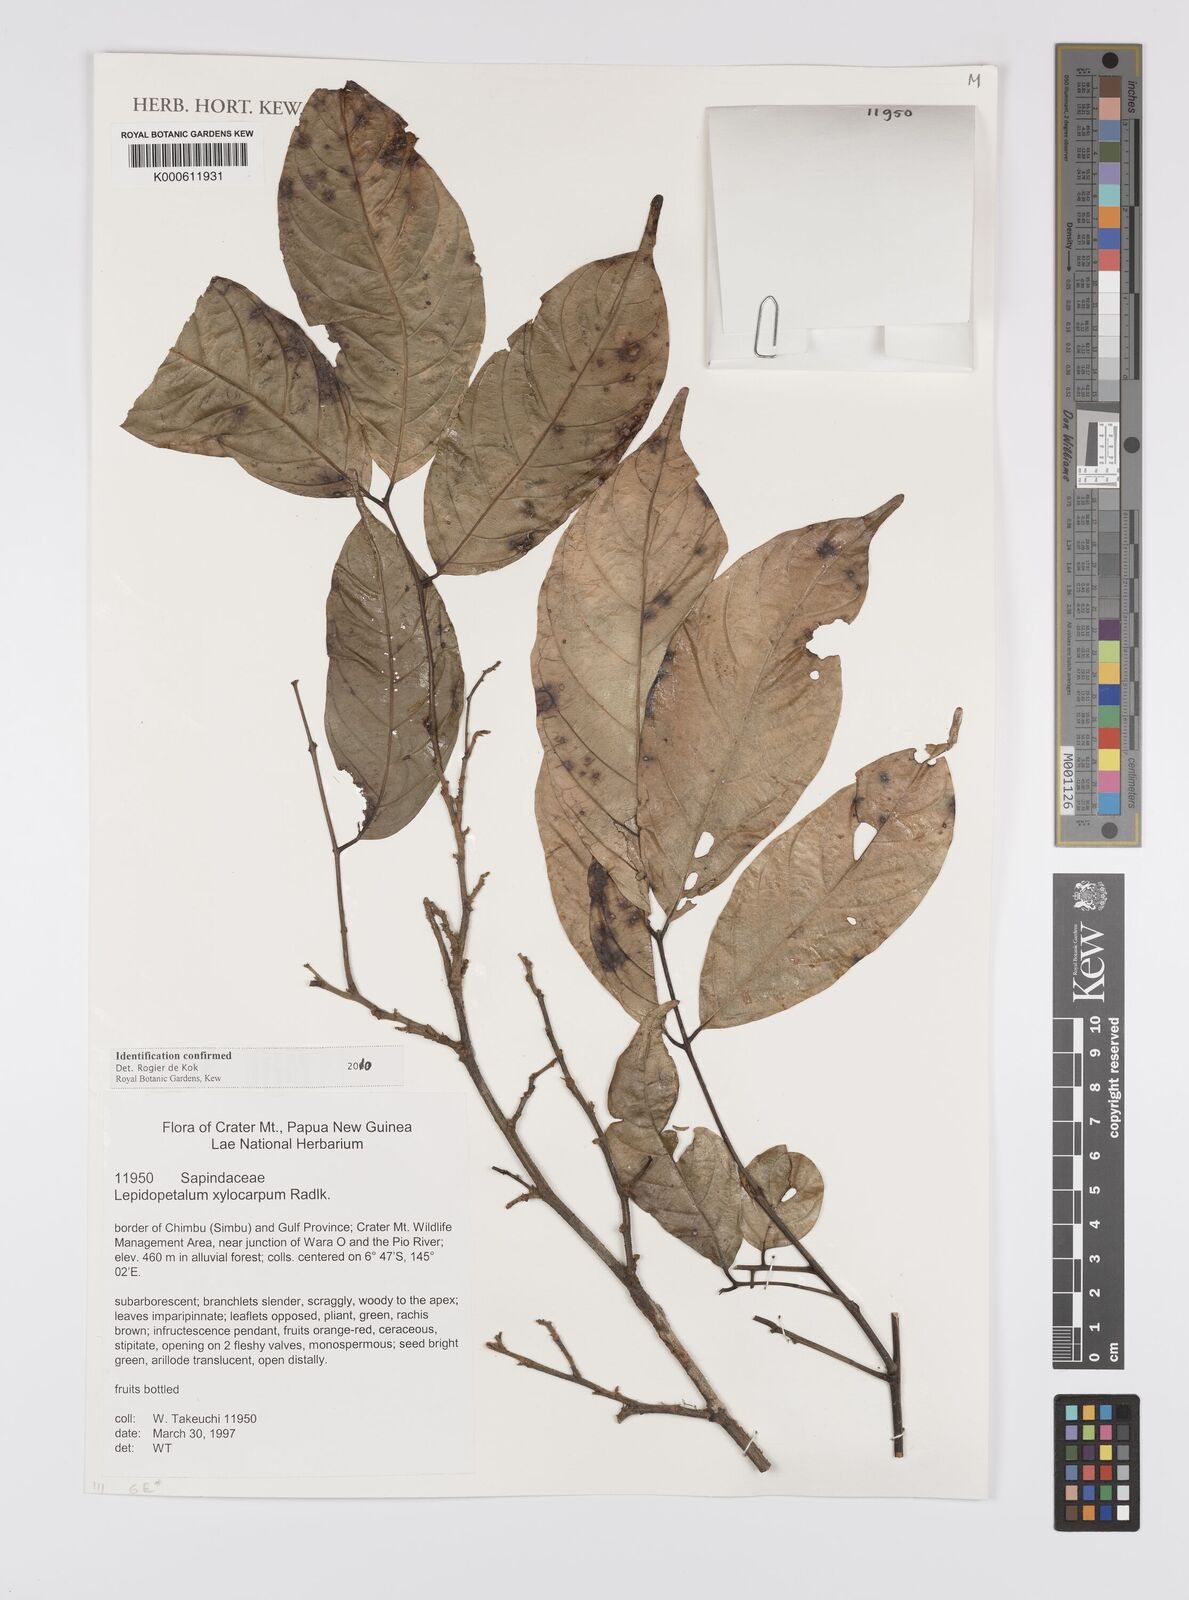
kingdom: Plantae
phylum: Tracheophyta
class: Magnoliopsida
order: Sapindales
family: Sapindaceae
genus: Lepidopetalum
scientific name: Lepidopetalum xylocarpum
